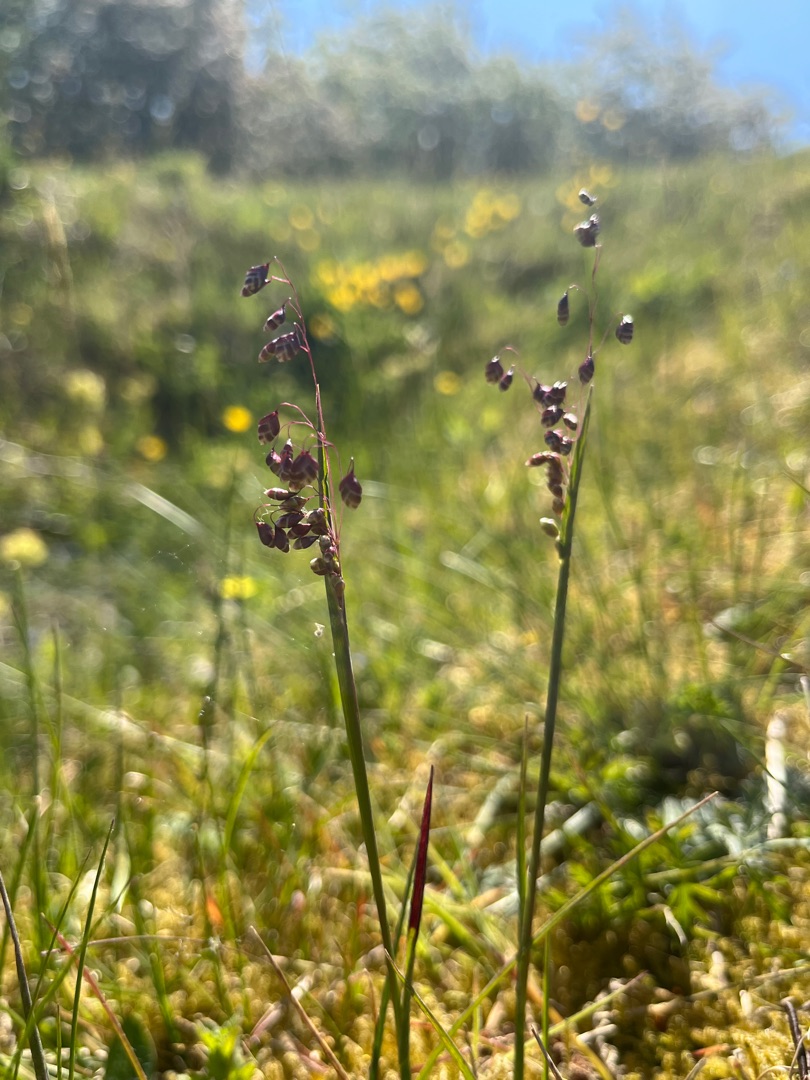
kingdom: Plantae
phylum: Tracheophyta
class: Liliopsida
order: Poales
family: Poaceae
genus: Briza
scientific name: Briza media
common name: Hjertegræs
